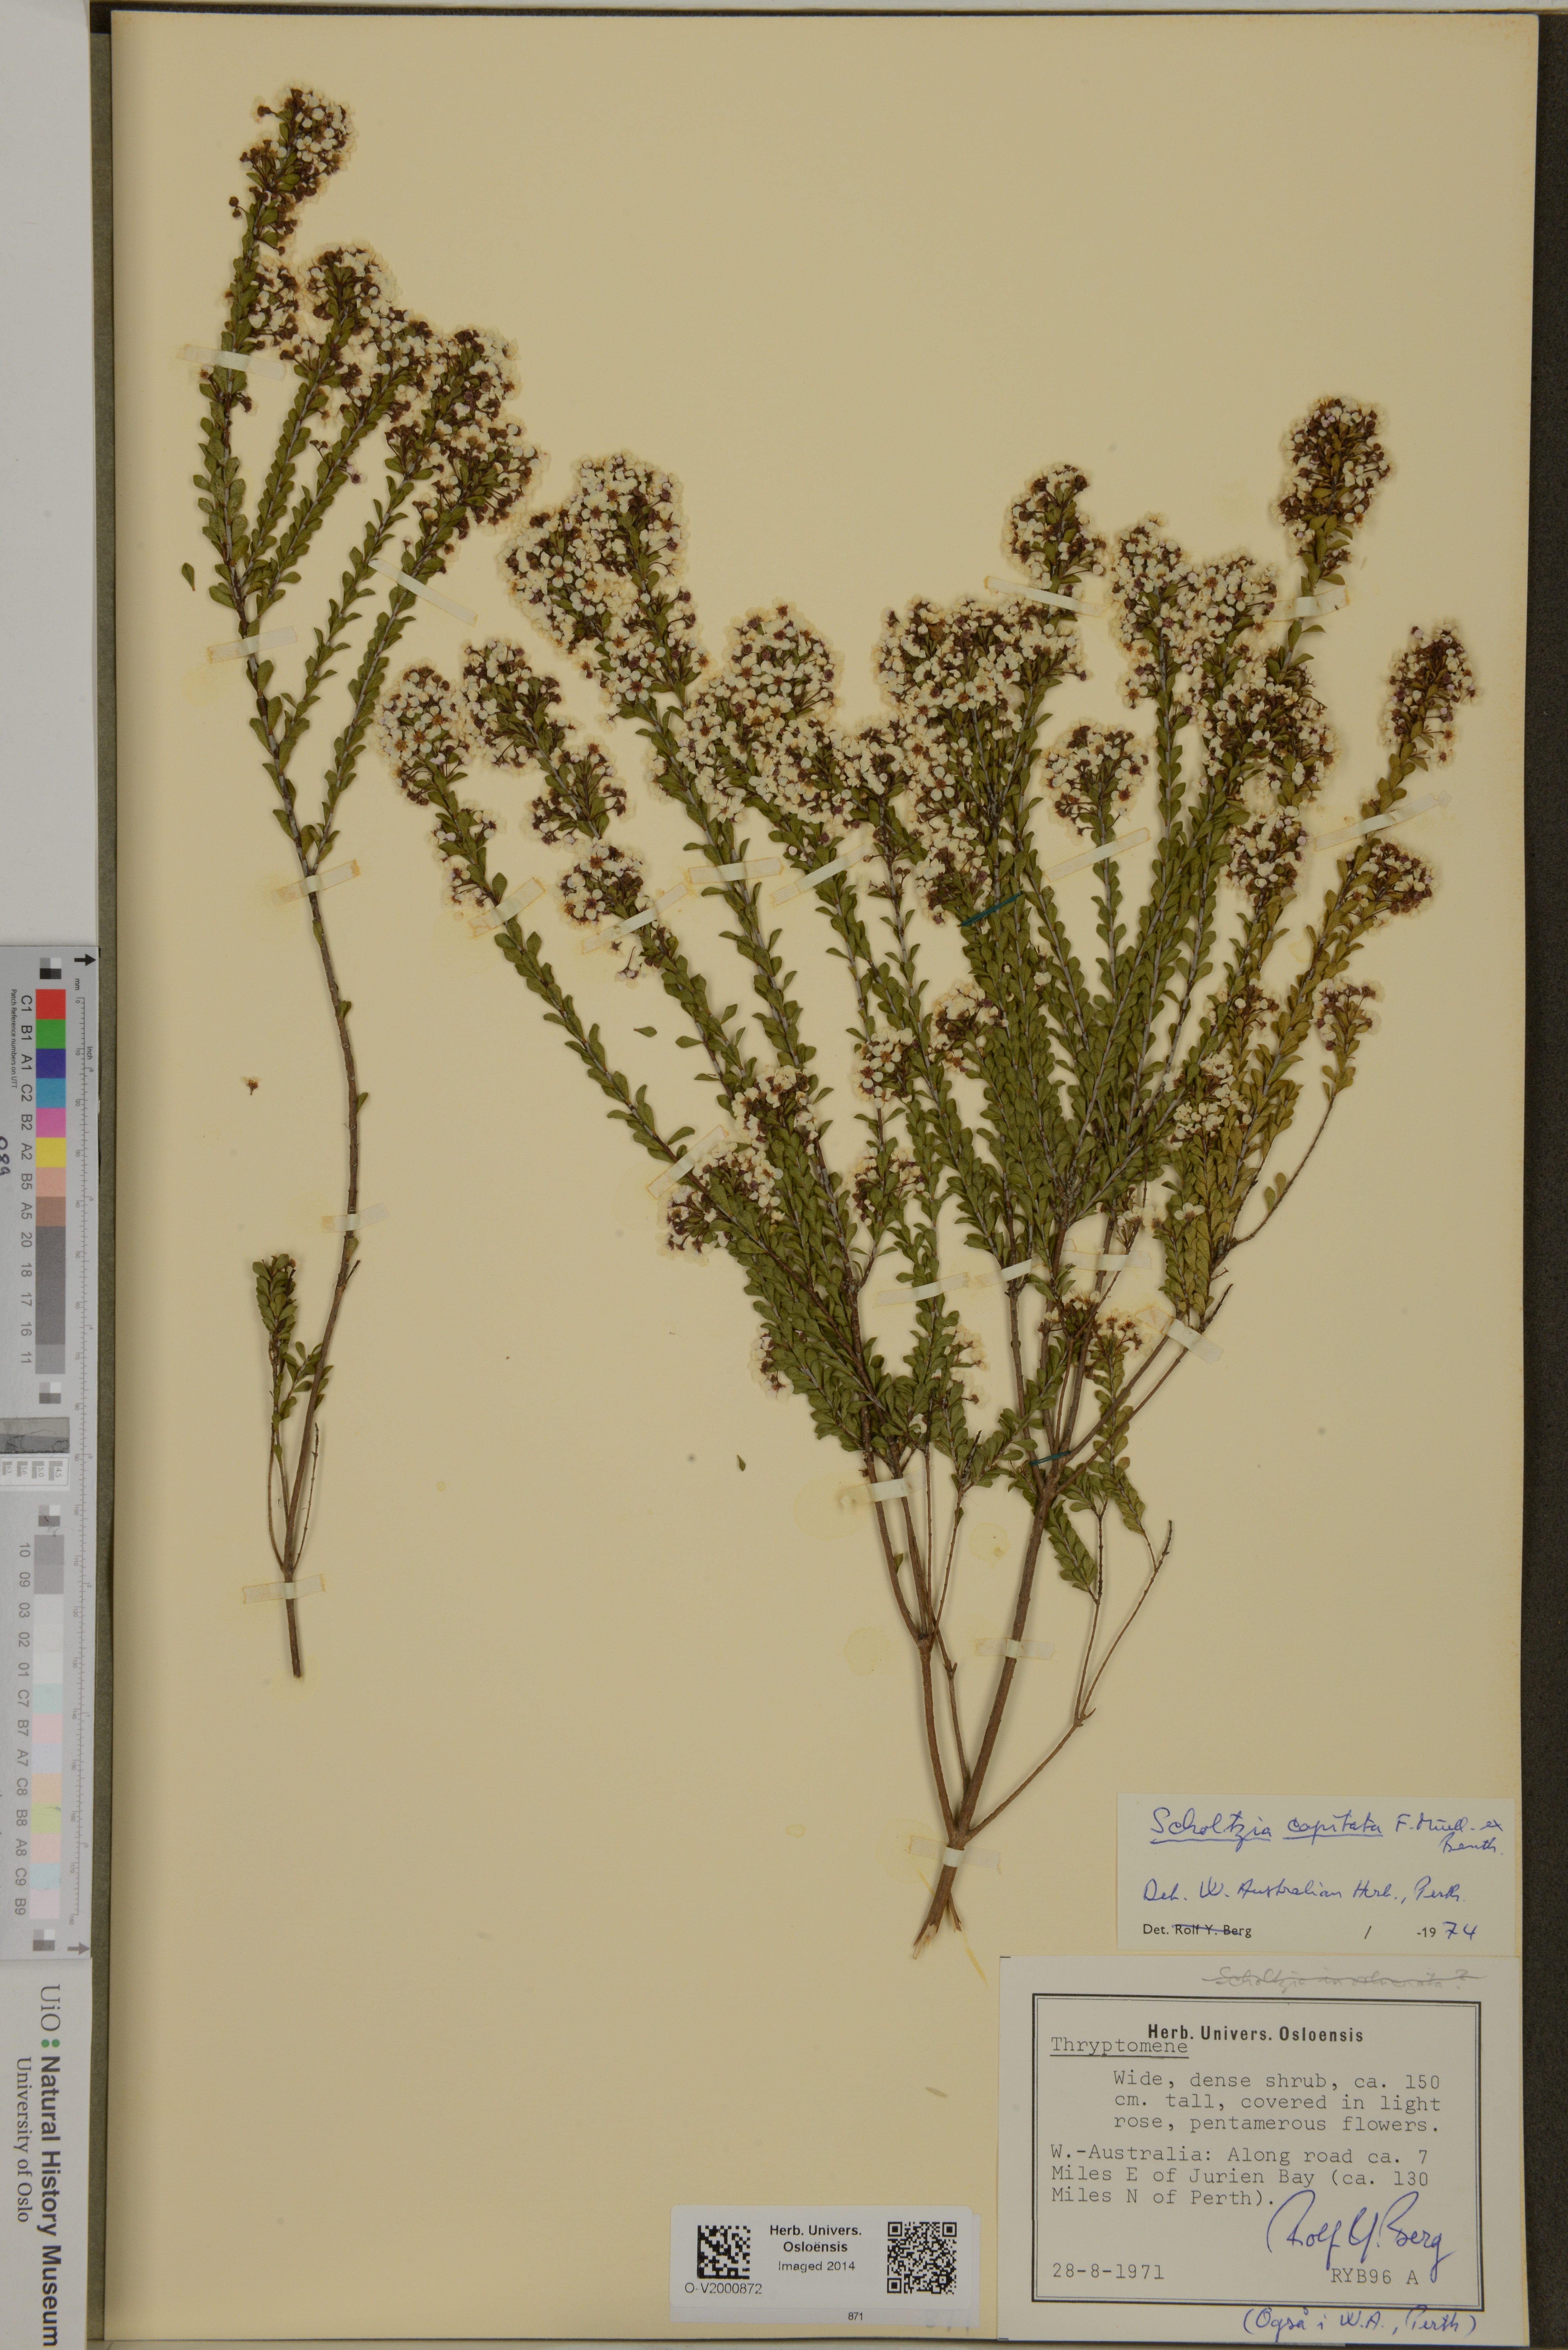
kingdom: Plantae
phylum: Tracheophyta
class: Magnoliopsida
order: Myrtales
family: Myrtaceae
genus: Scholtzia
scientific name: Scholtzia capitata
